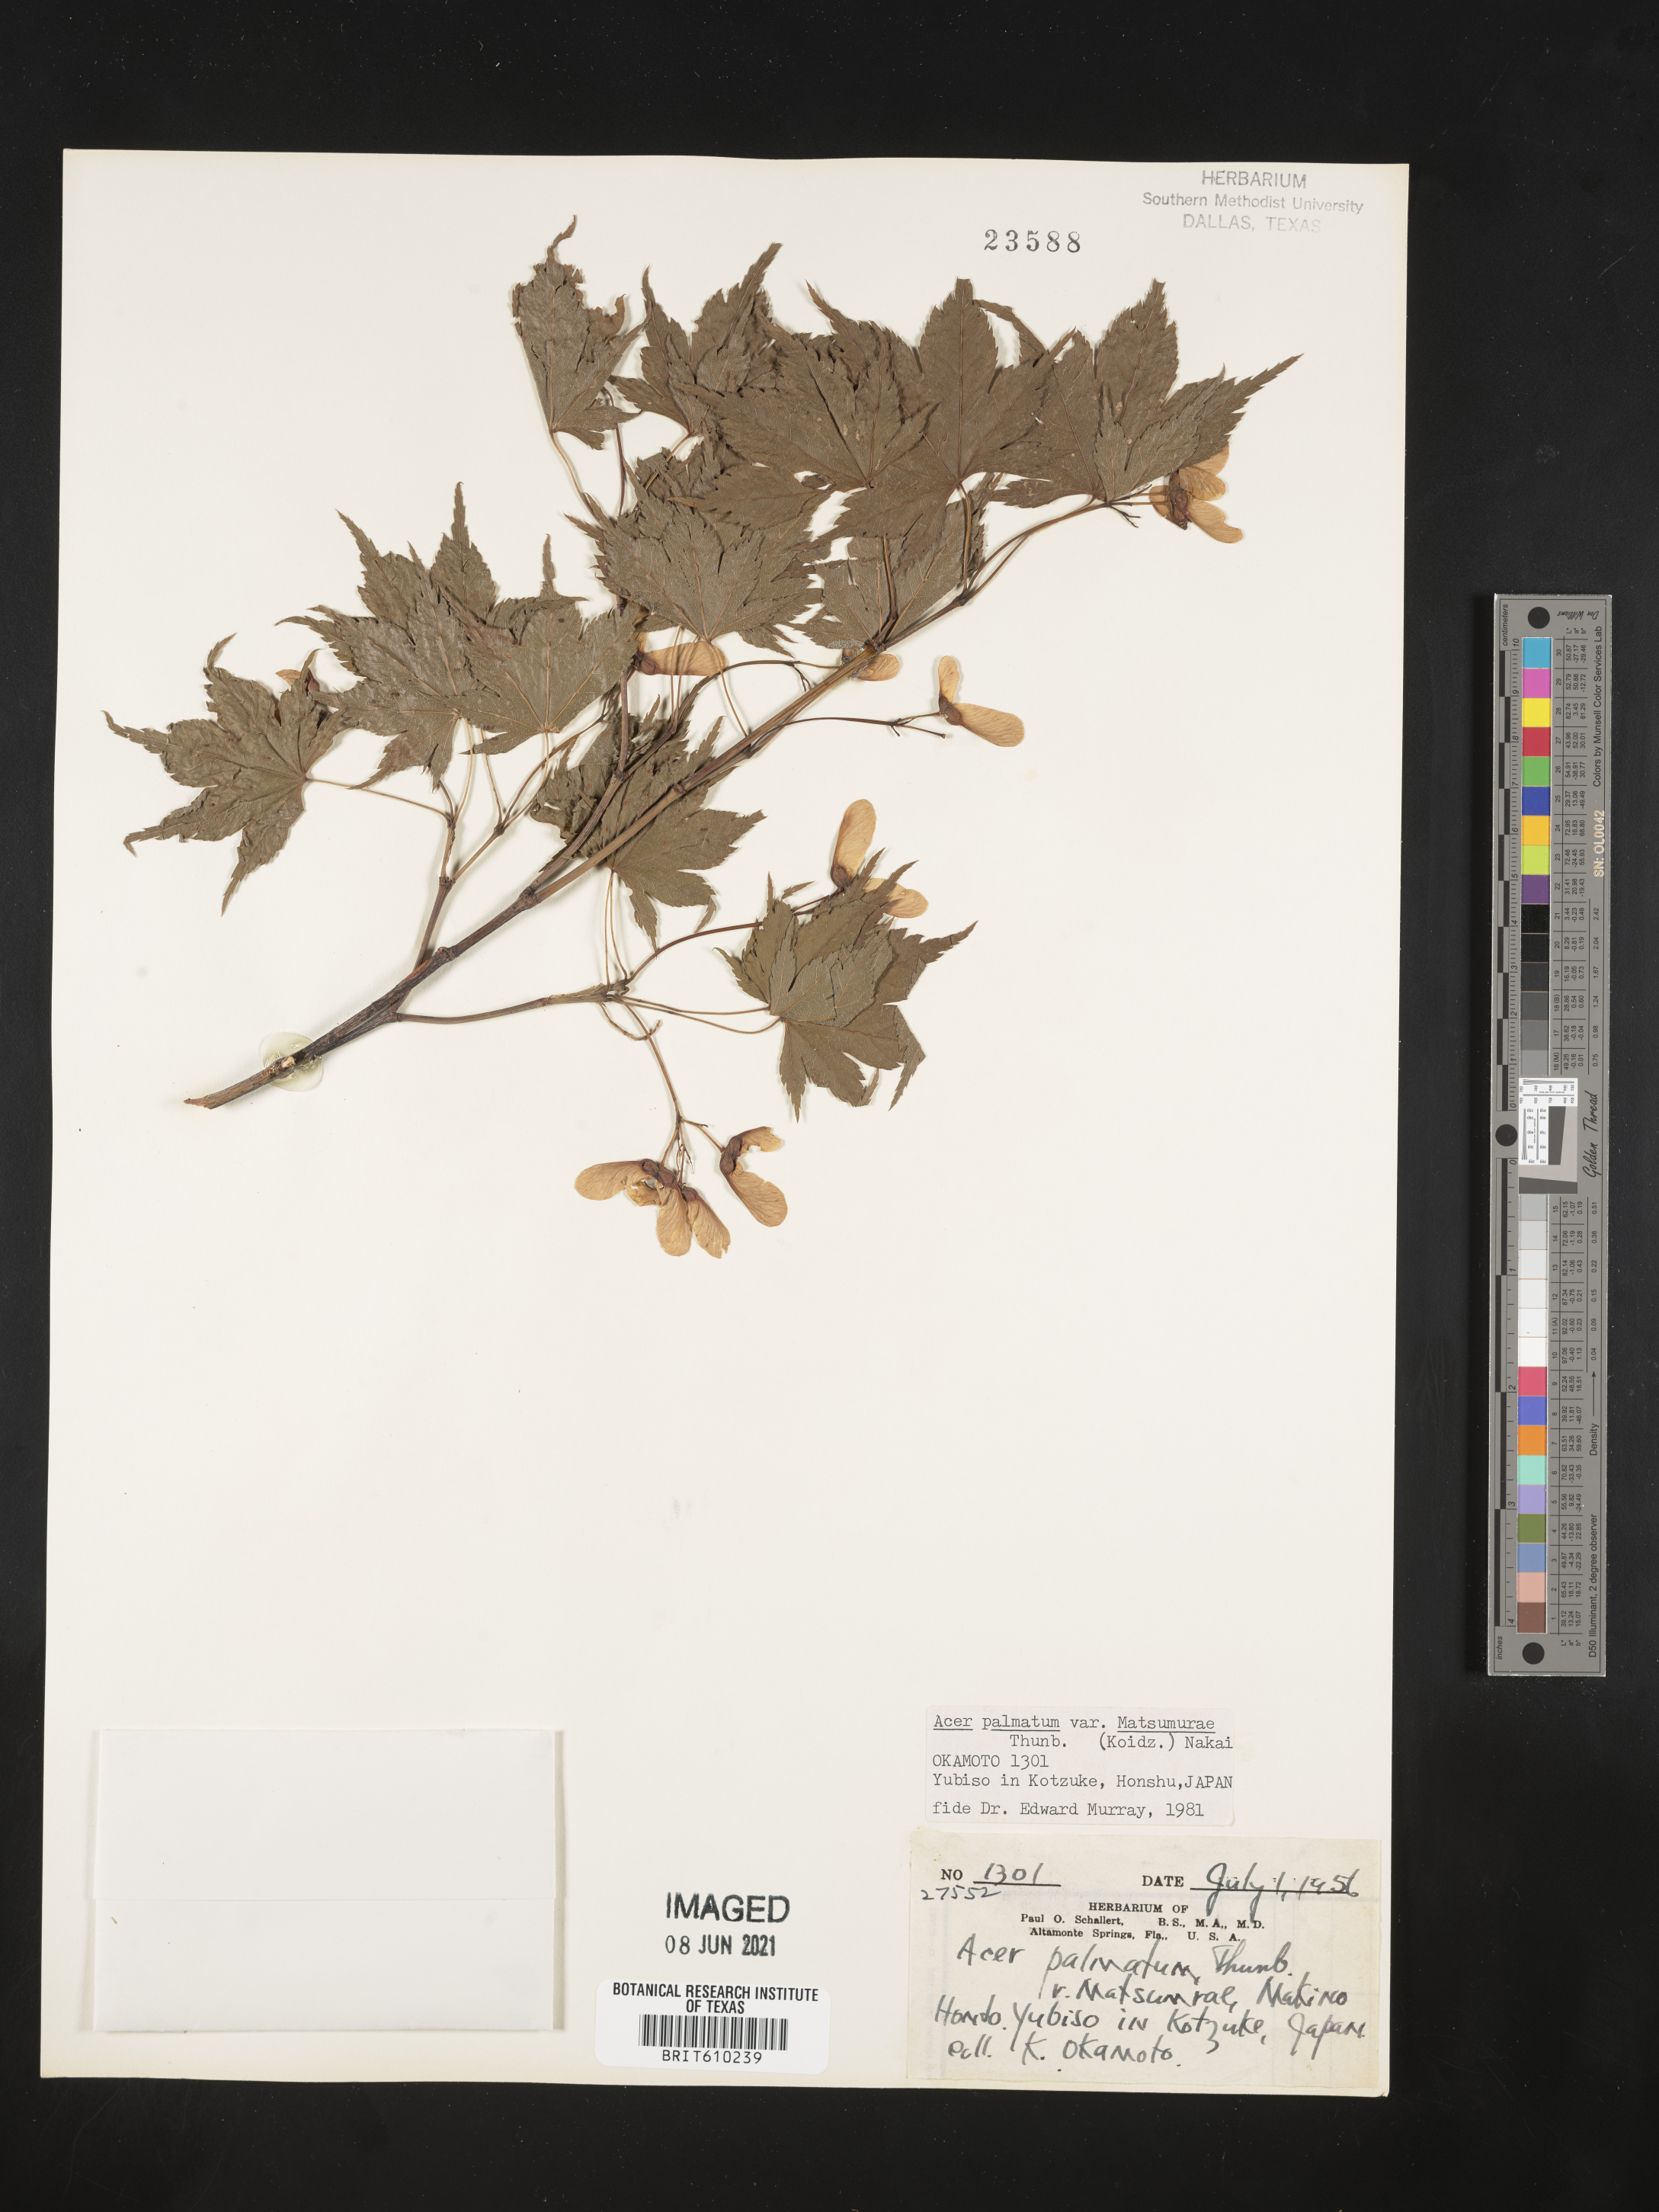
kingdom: Plantae
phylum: Tracheophyta
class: Magnoliopsida
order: Sapindales
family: Sapindaceae
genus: Acer
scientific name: Acer palmatum
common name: Japanese maple
